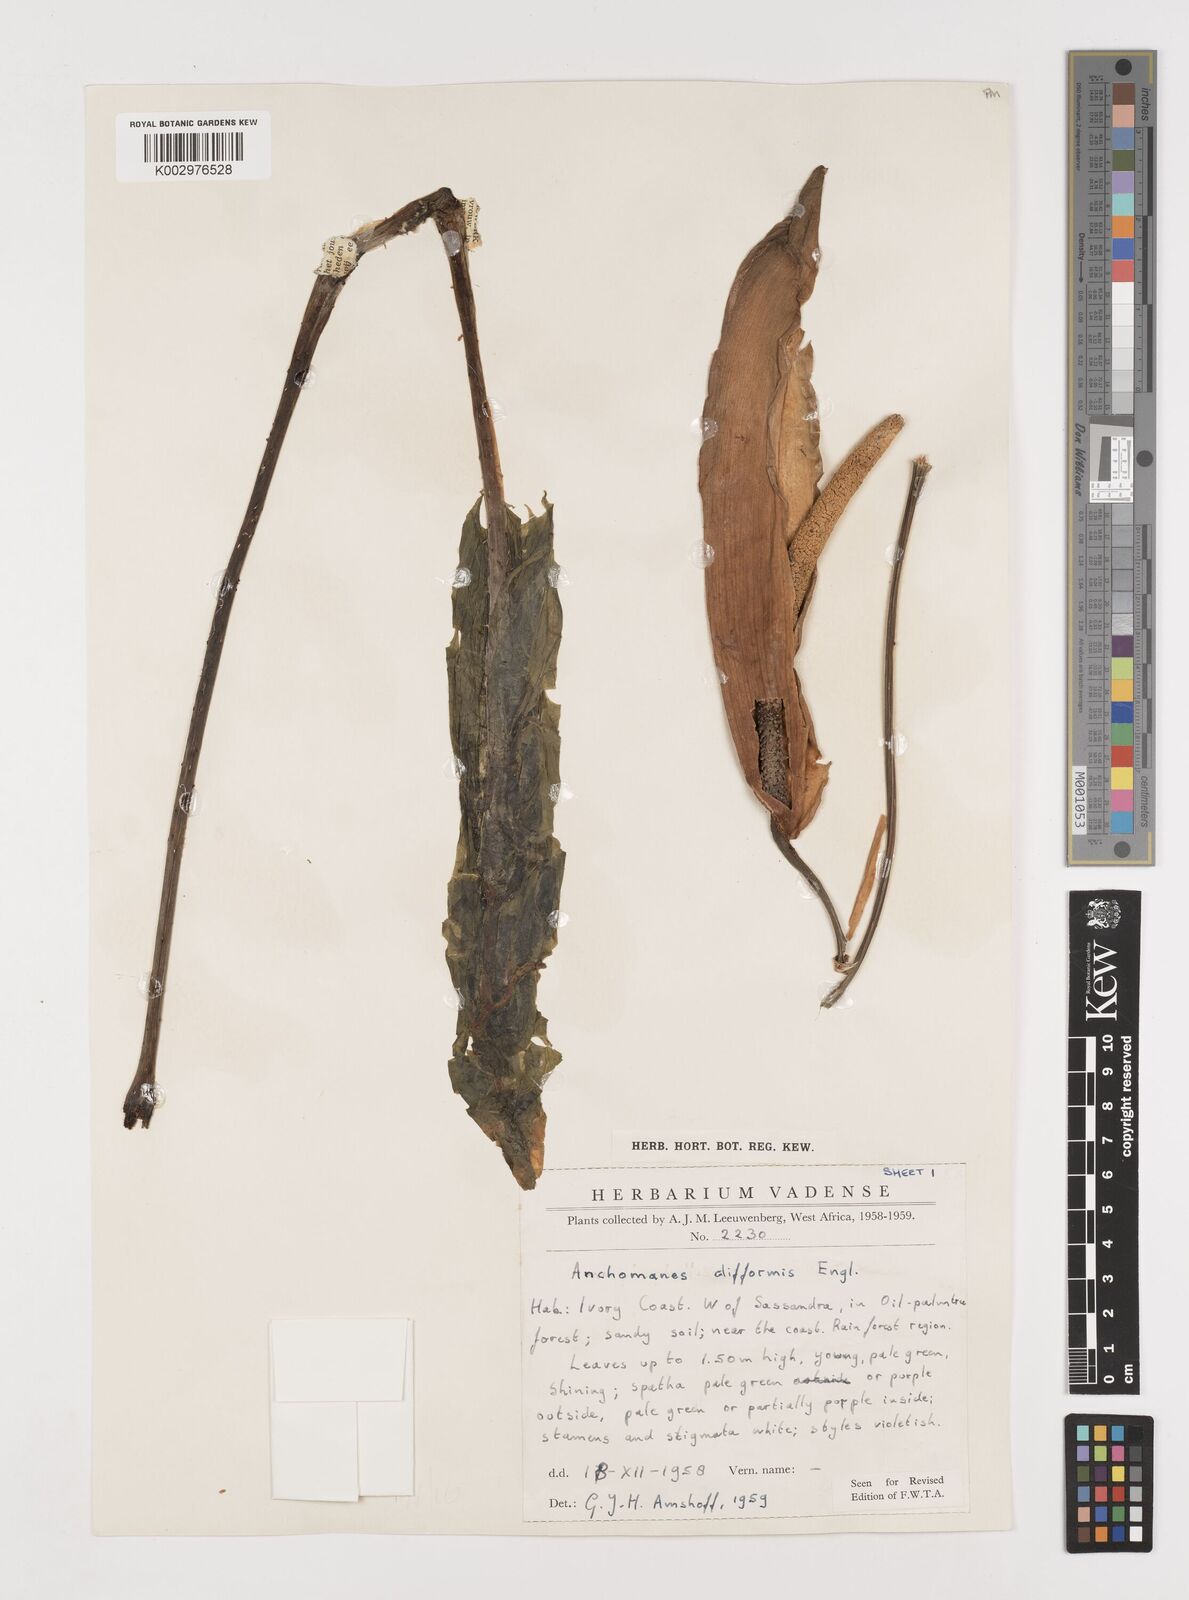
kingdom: Plantae
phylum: Tracheophyta
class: Liliopsida
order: Alismatales
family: Araceae
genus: Anchomanes
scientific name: Anchomanes difformis
